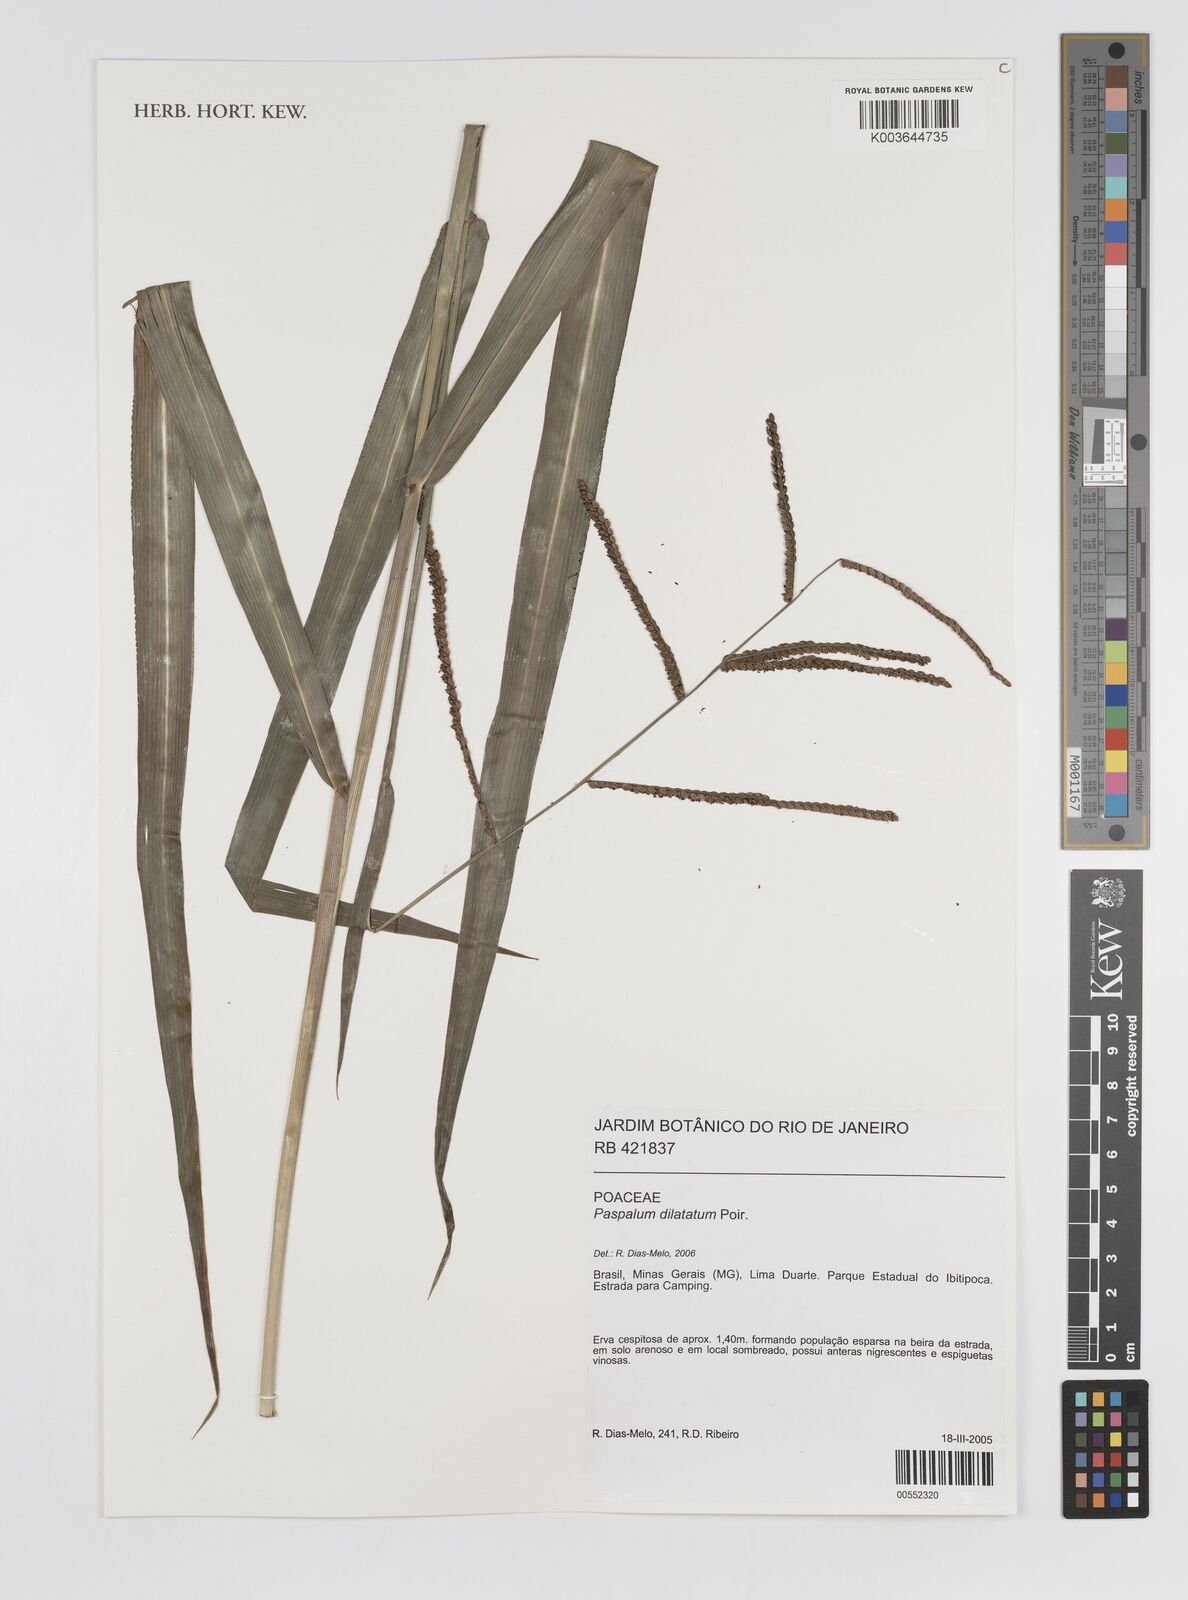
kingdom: Plantae
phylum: Tracheophyta
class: Liliopsida
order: Poales
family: Poaceae
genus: Paspalum
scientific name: Paspalum dilatatum
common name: Dallisgrass
